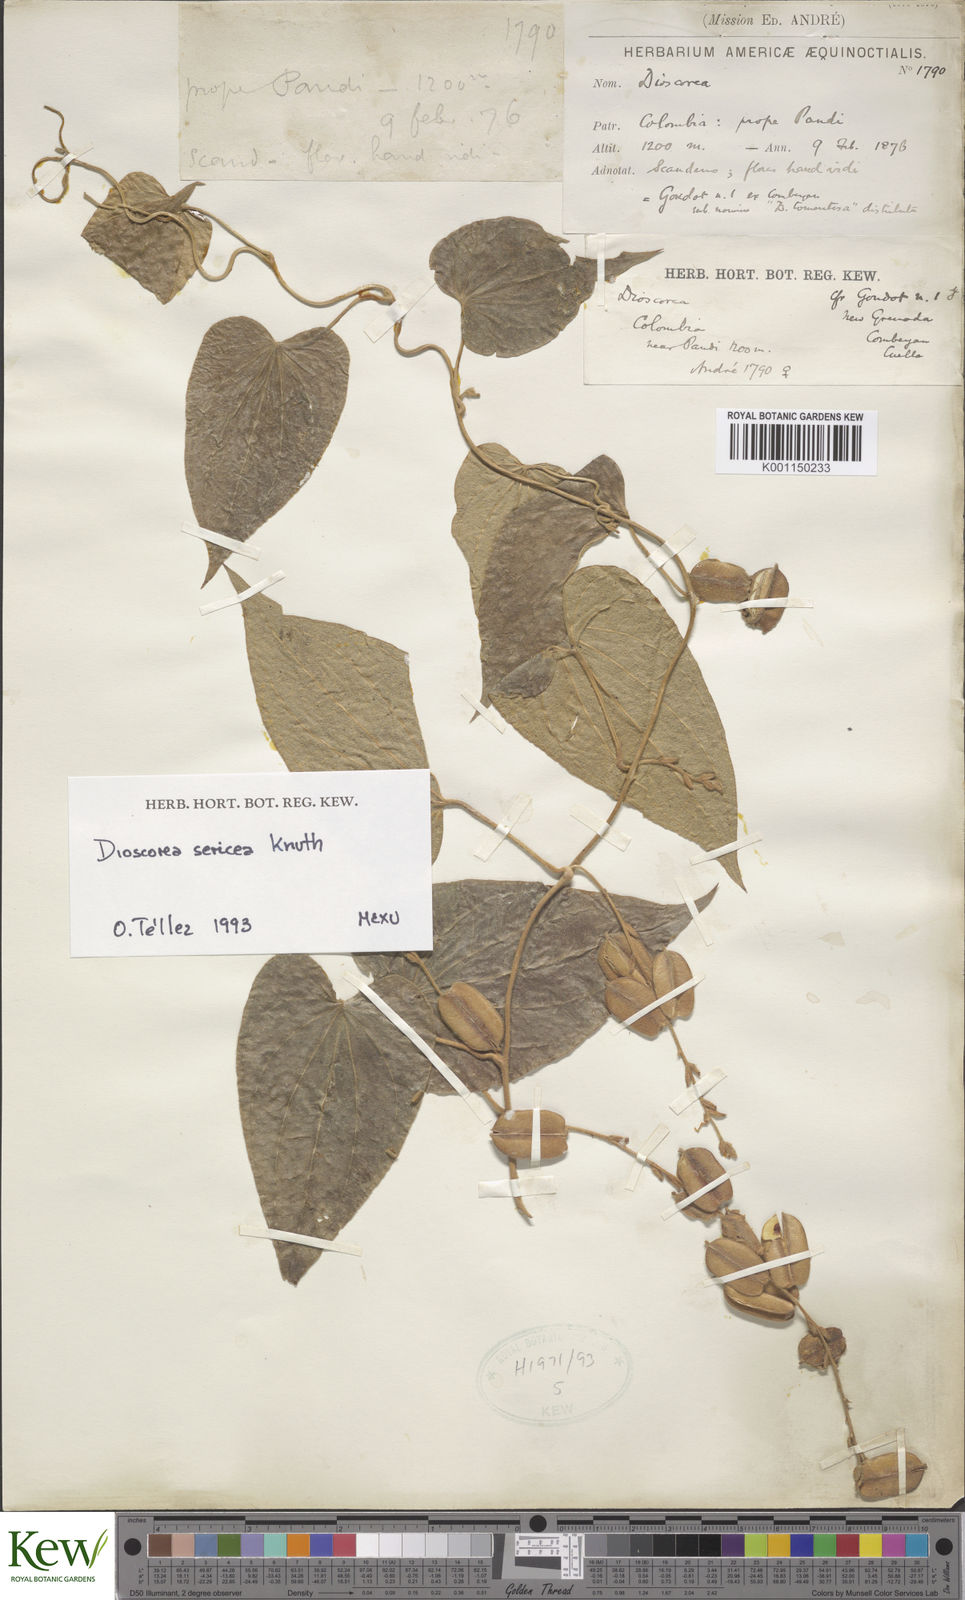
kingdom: Plantae
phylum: Tracheophyta
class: Liliopsida
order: Dioscoreales
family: Dioscoreaceae
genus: Dioscorea
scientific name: Dioscorea sericea
